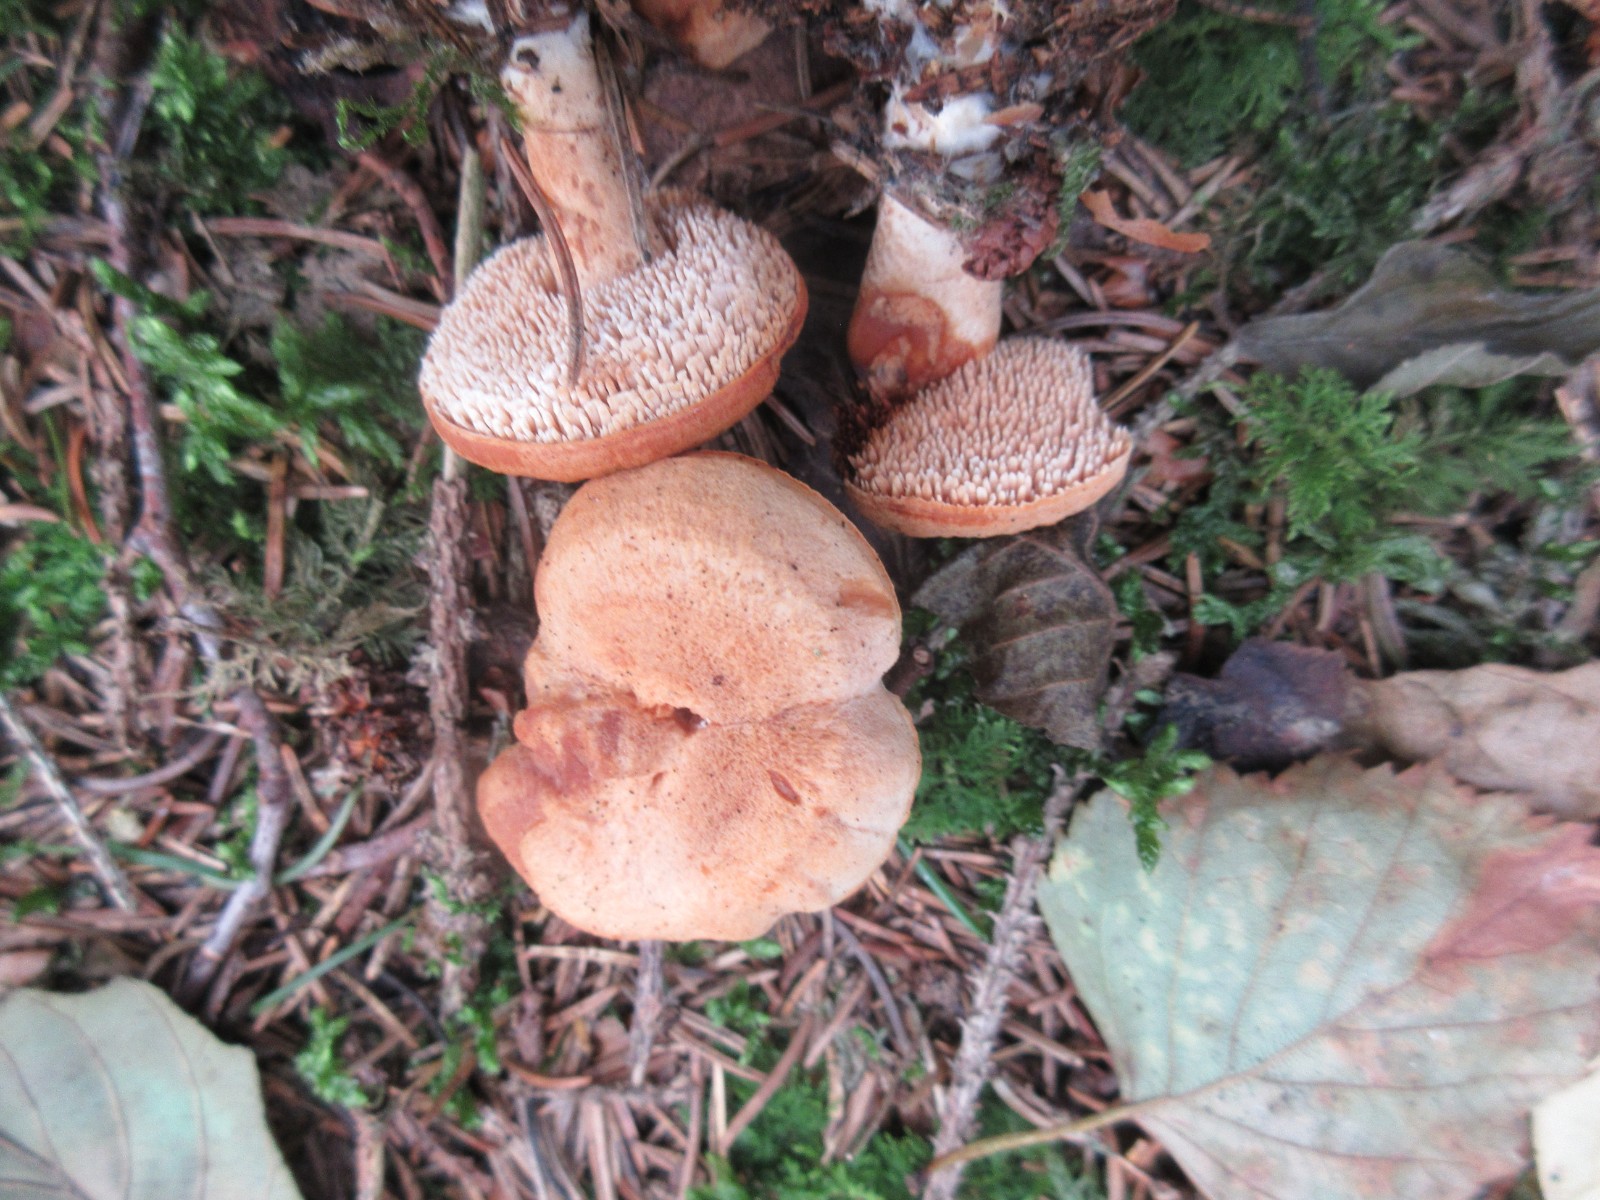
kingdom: Fungi
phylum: Basidiomycota
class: Agaricomycetes
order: Cantharellales
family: Hydnaceae
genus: Hydnum
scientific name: Hydnum
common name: pigsvamp
